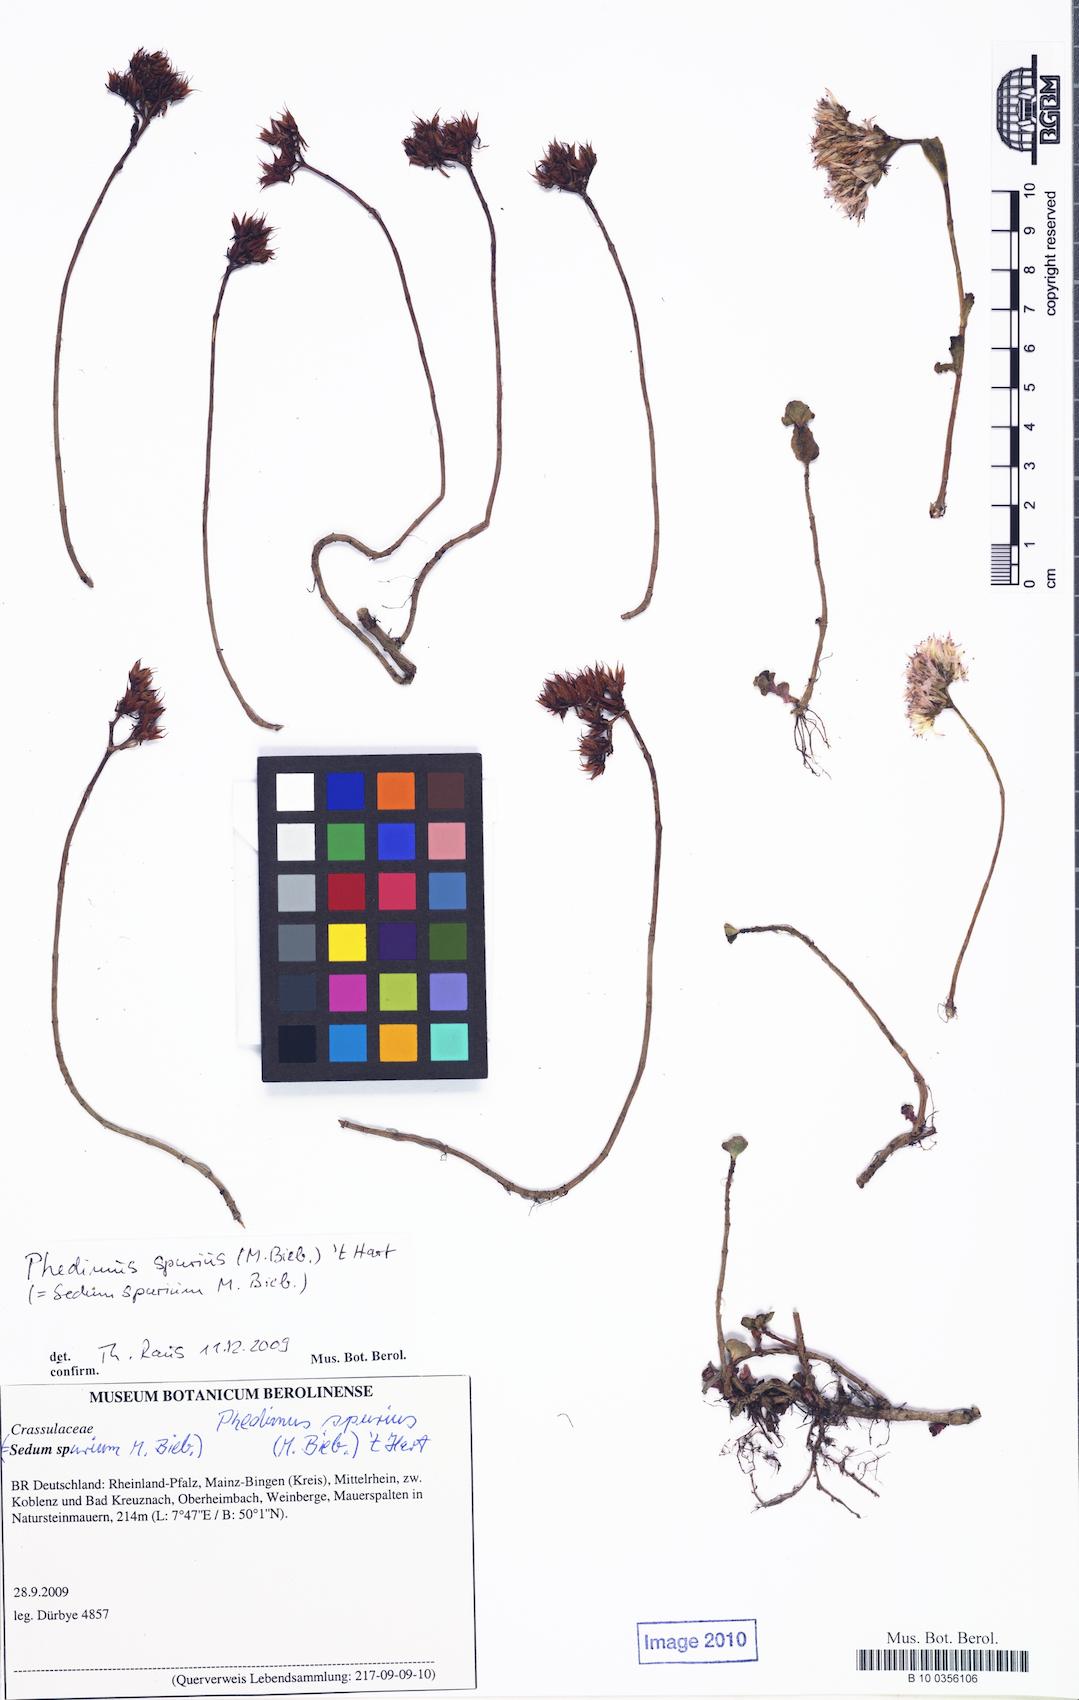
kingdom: Plantae
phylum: Tracheophyta
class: Magnoliopsida
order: Saxifragales
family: Crassulaceae
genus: Phedimus
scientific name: Phedimus spurius
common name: Caucasian stonecrop
